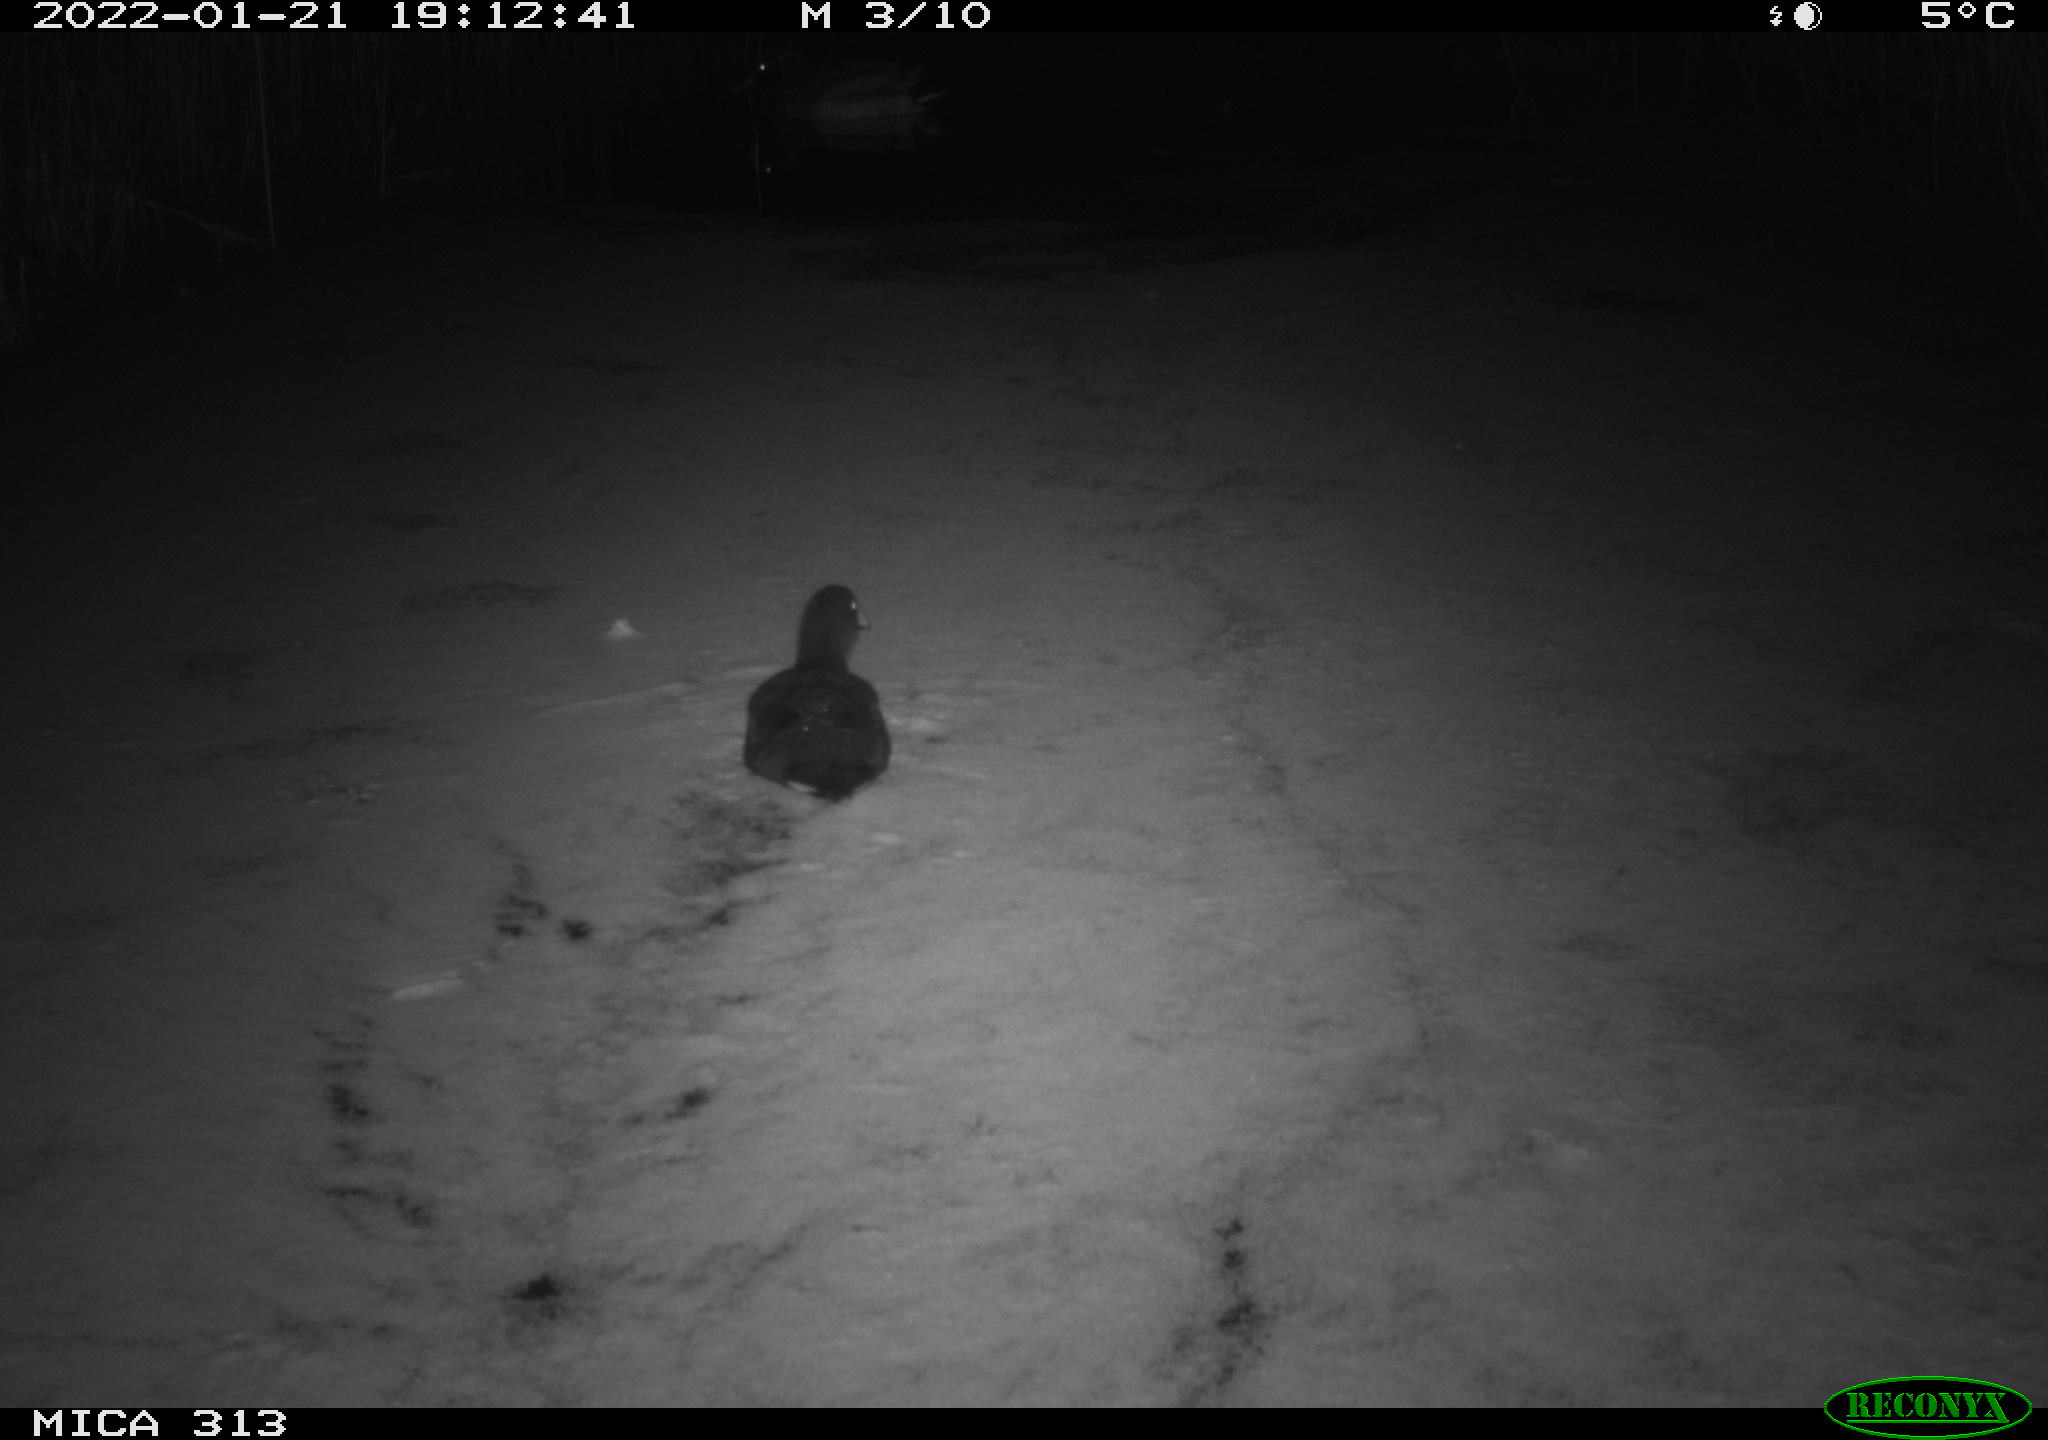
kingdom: Animalia
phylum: Chordata
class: Aves
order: Gruiformes
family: Rallidae
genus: Fulica
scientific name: Fulica atra
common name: Eurasian coot
